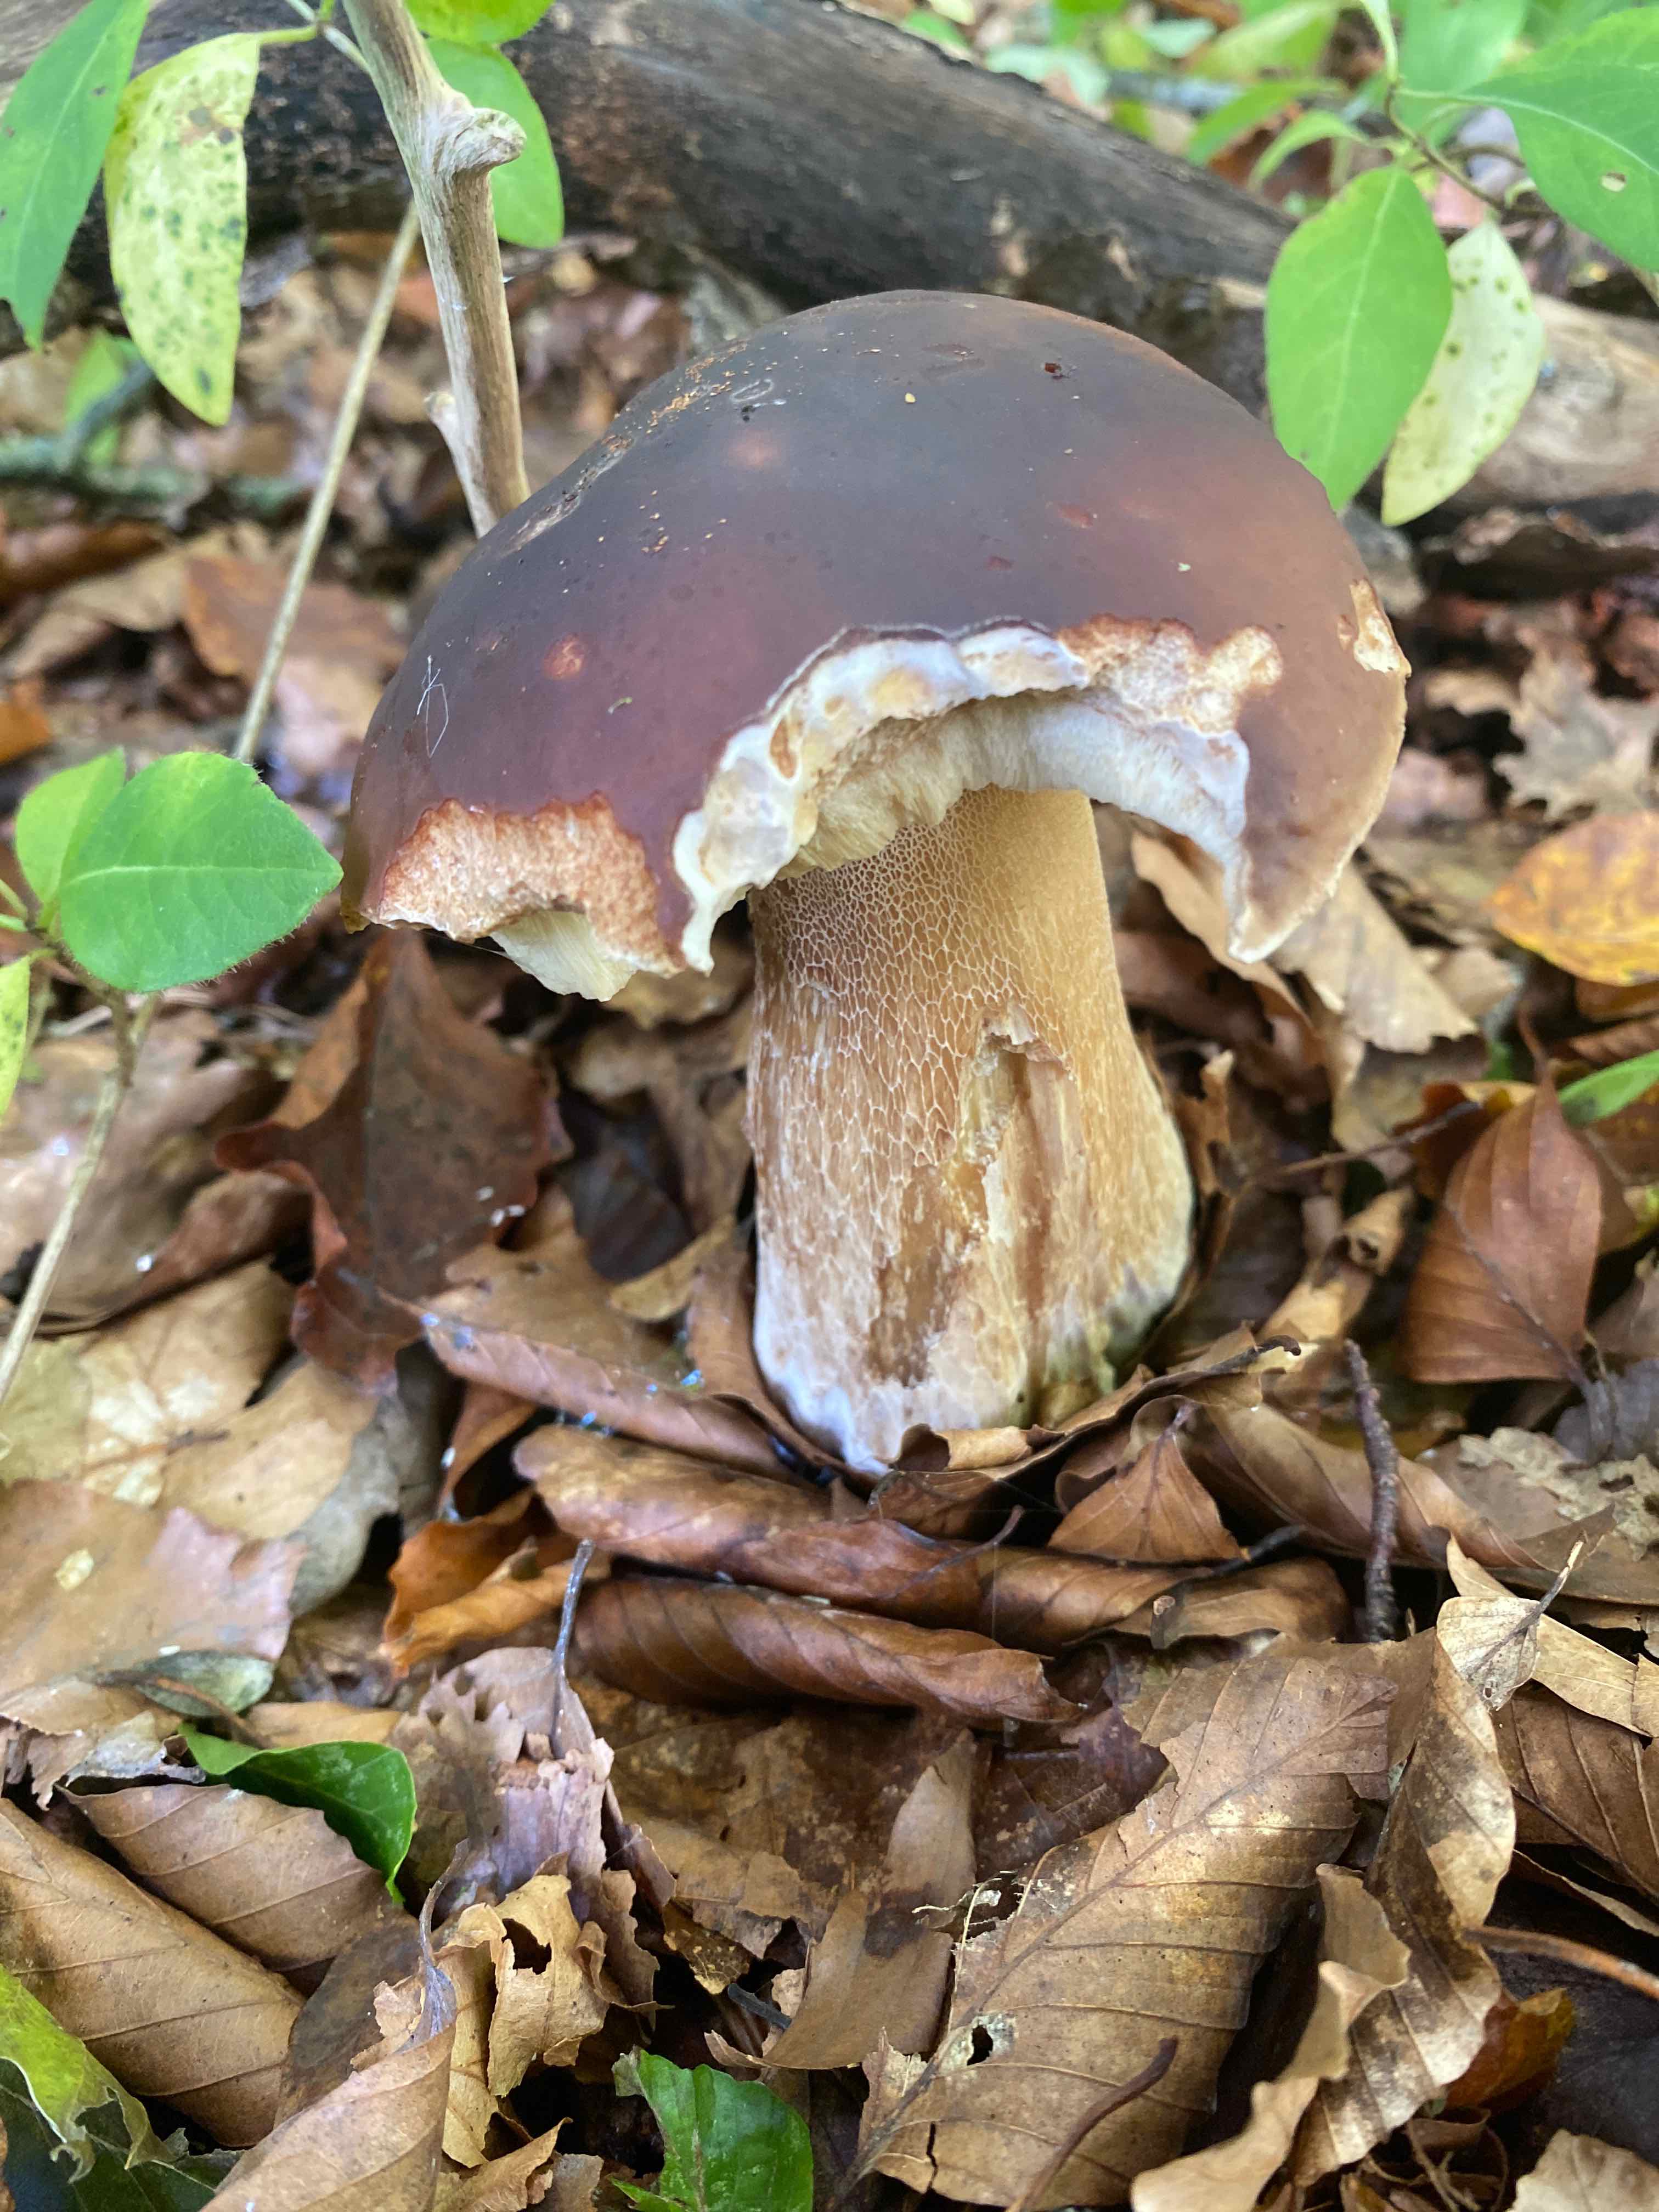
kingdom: Fungi
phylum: Basidiomycota
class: Agaricomycetes
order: Boletales
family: Boletaceae
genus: Boletus
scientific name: Boletus edulis
